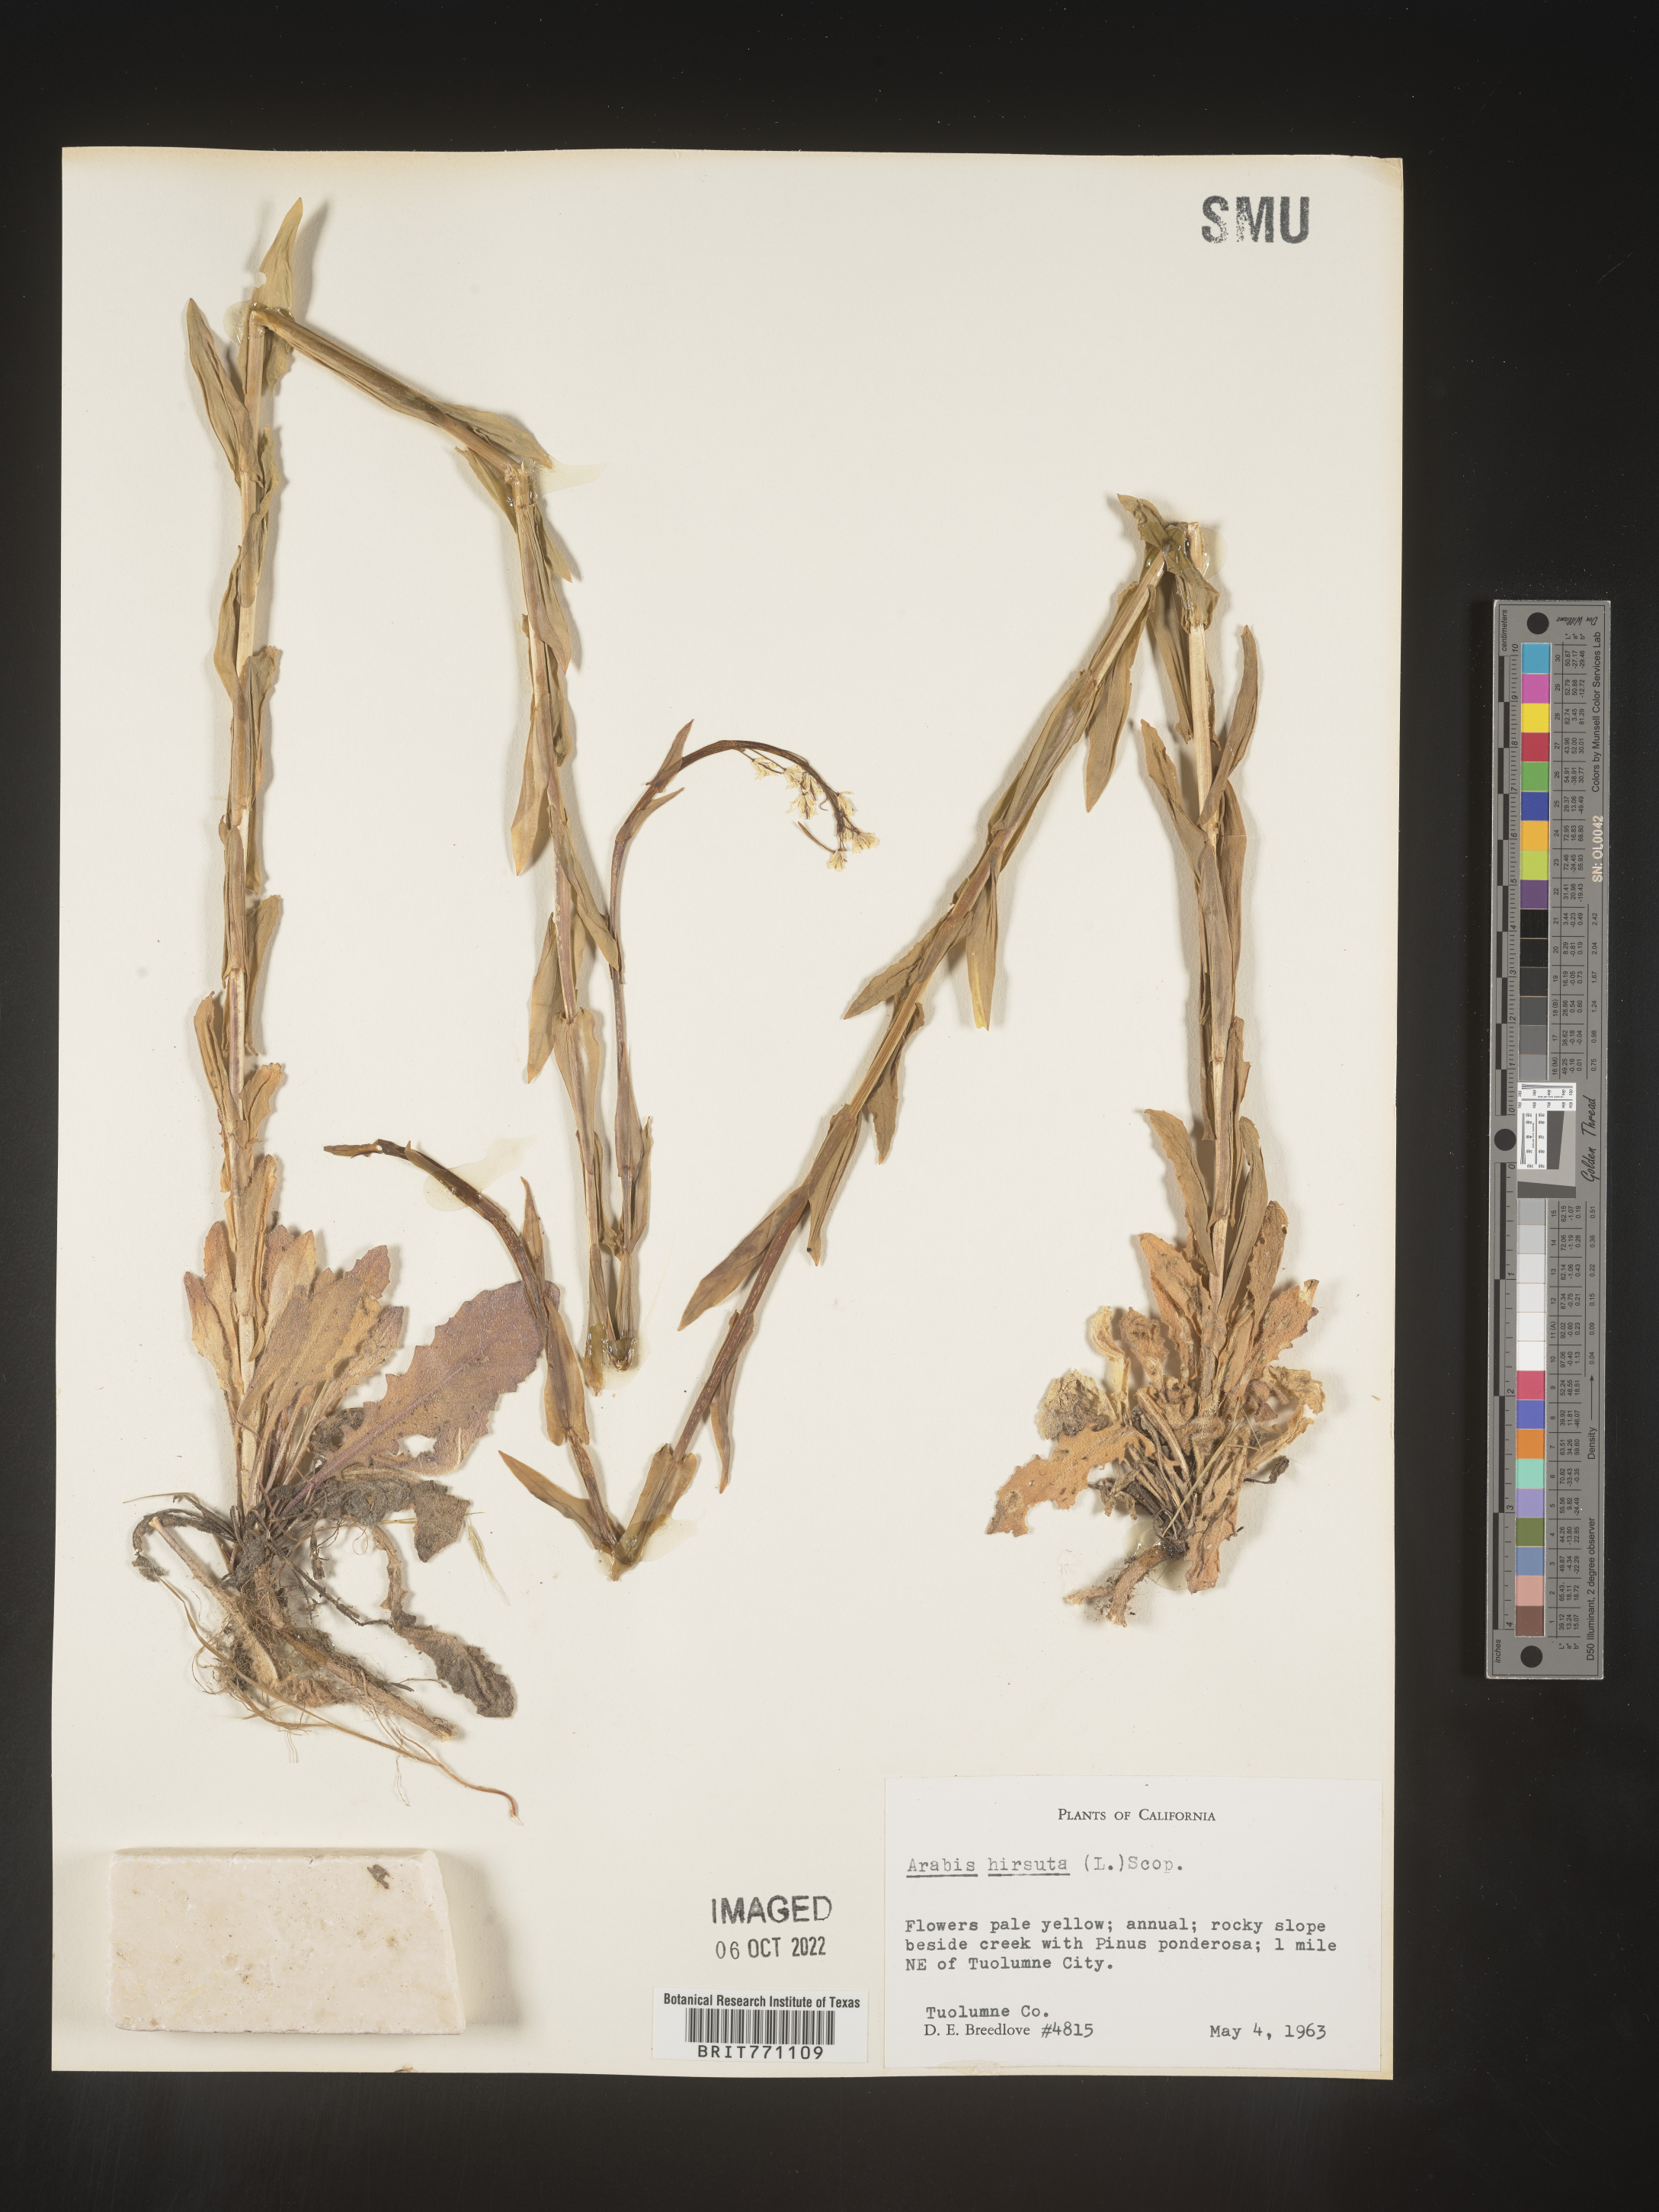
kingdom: Plantae
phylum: Tracheophyta
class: Magnoliopsida
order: Brassicales
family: Brassicaceae
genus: Arabis
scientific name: Arabis hirsuta
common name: Hairy rock-cress
